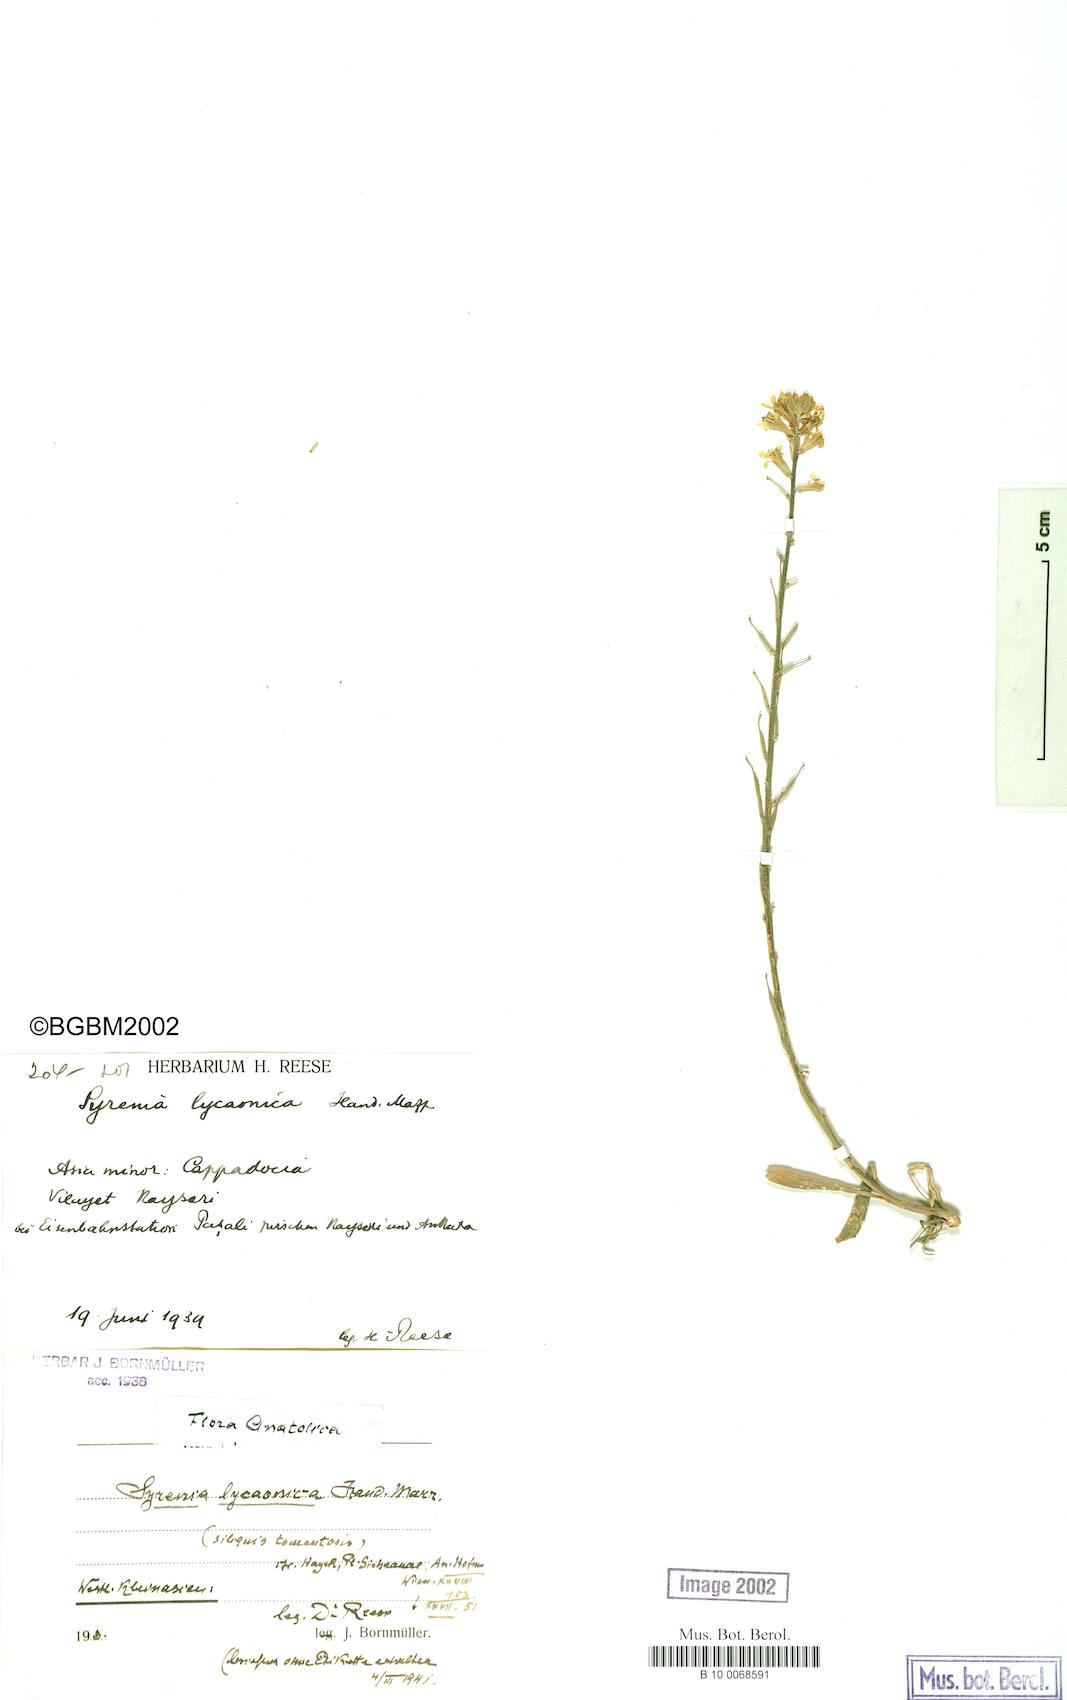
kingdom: Plantae
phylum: Tracheophyta
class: Magnoliopsida
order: Brassicales
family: Brassicaceae
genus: Erysimum
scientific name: Erysimum lycaonicum
